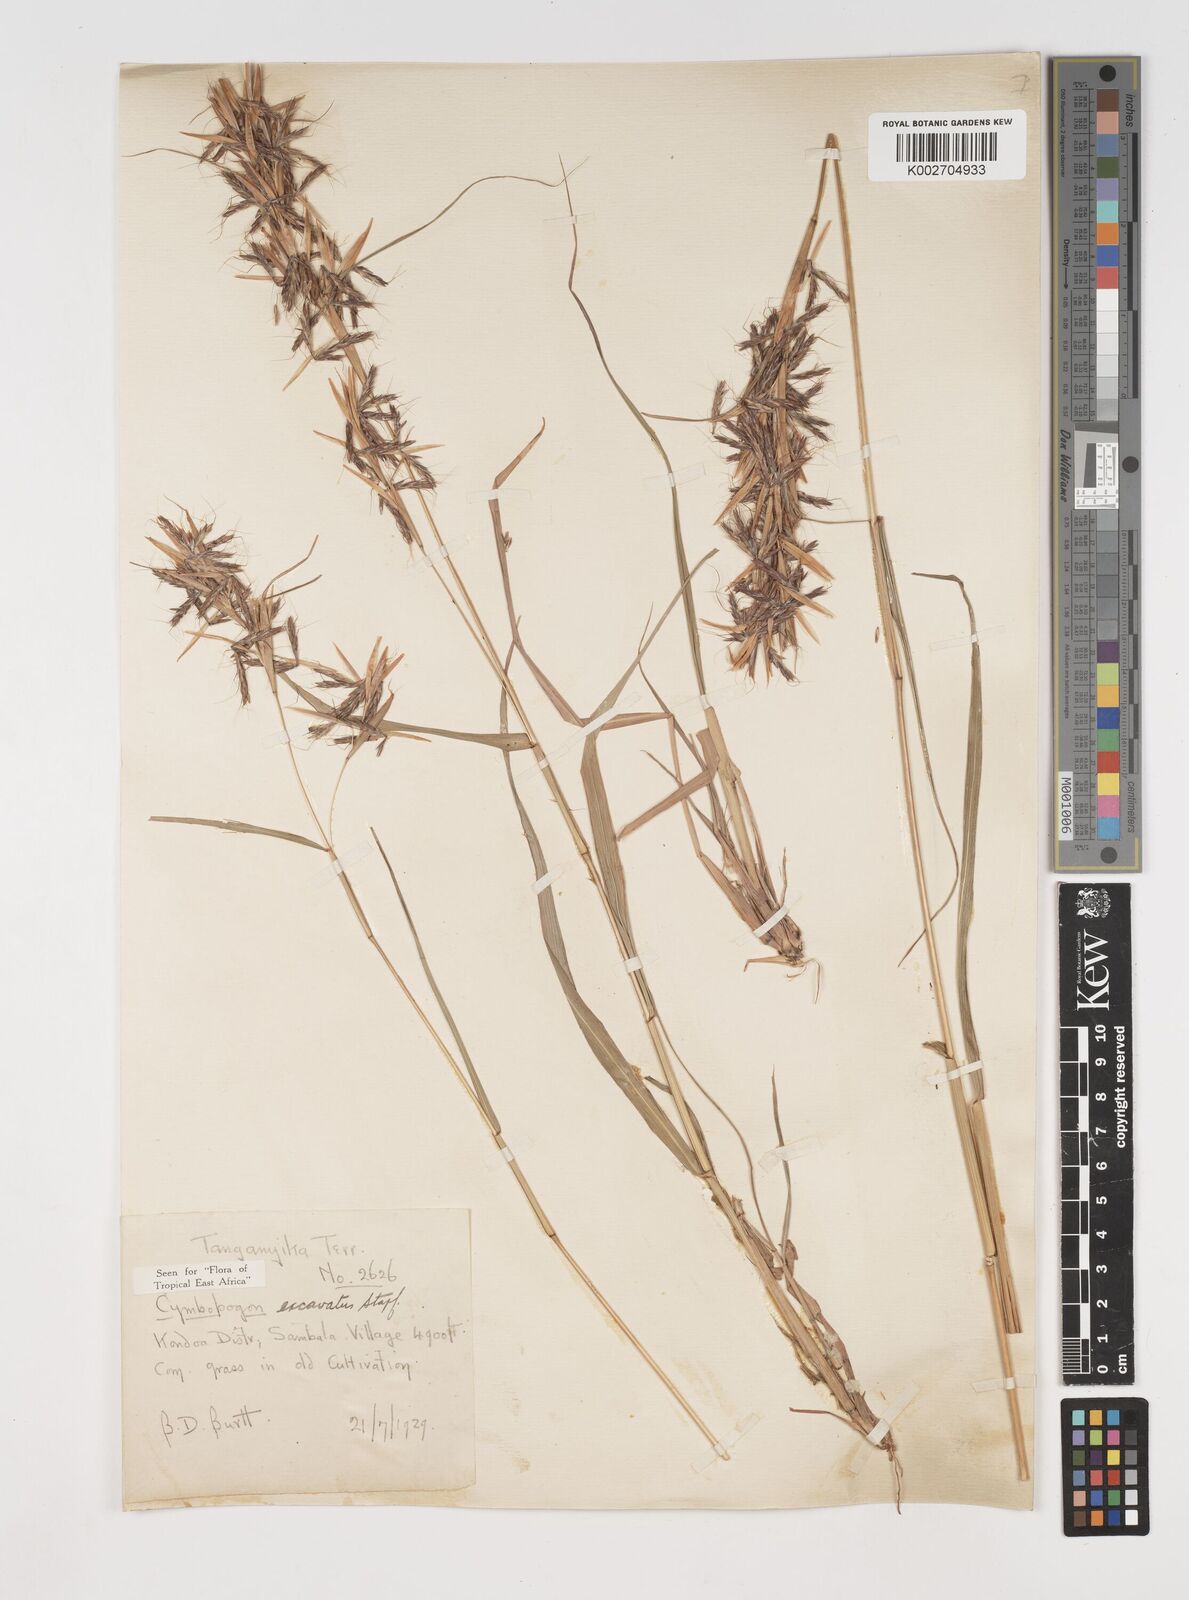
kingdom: Plantae
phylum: Tracheophyta
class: Liliopsida
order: Poales
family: Poaceae
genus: Cymbopogon
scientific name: Cymbopogon caesius
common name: Kachi grass
